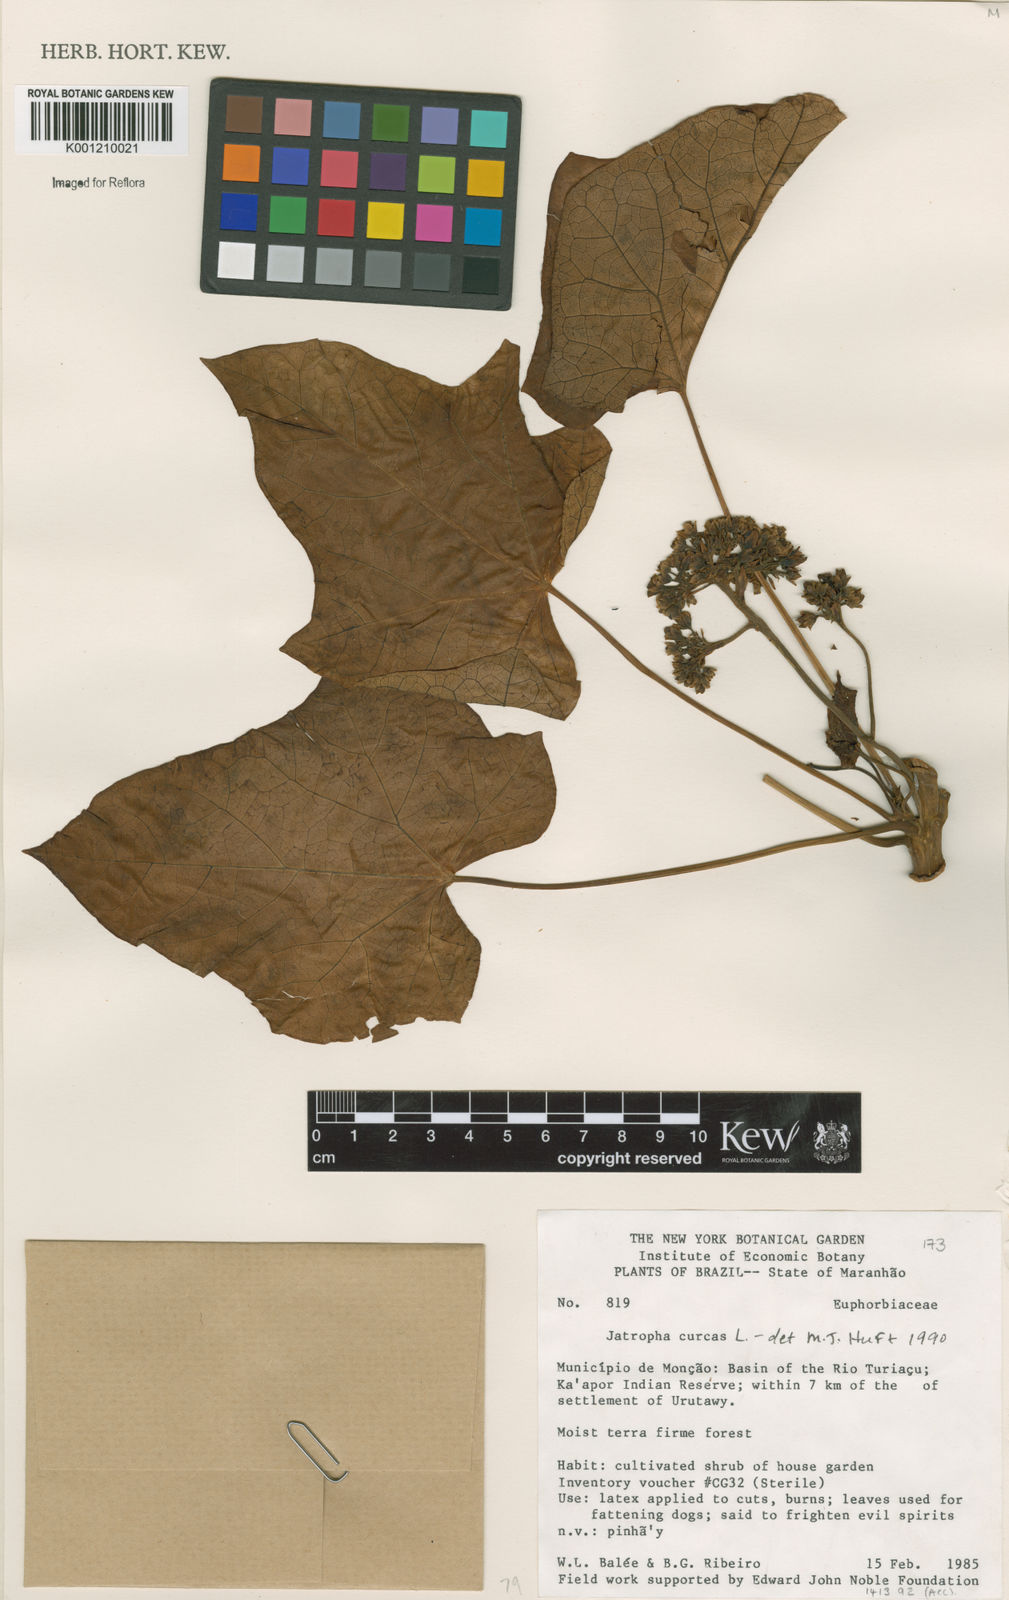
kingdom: Plantae
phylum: Tracheophyta
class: Magnoliopsida
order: Malpighiales
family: Euphorbiaceae
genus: Jatropha
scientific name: Jatropha curcas
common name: Barbados nut
